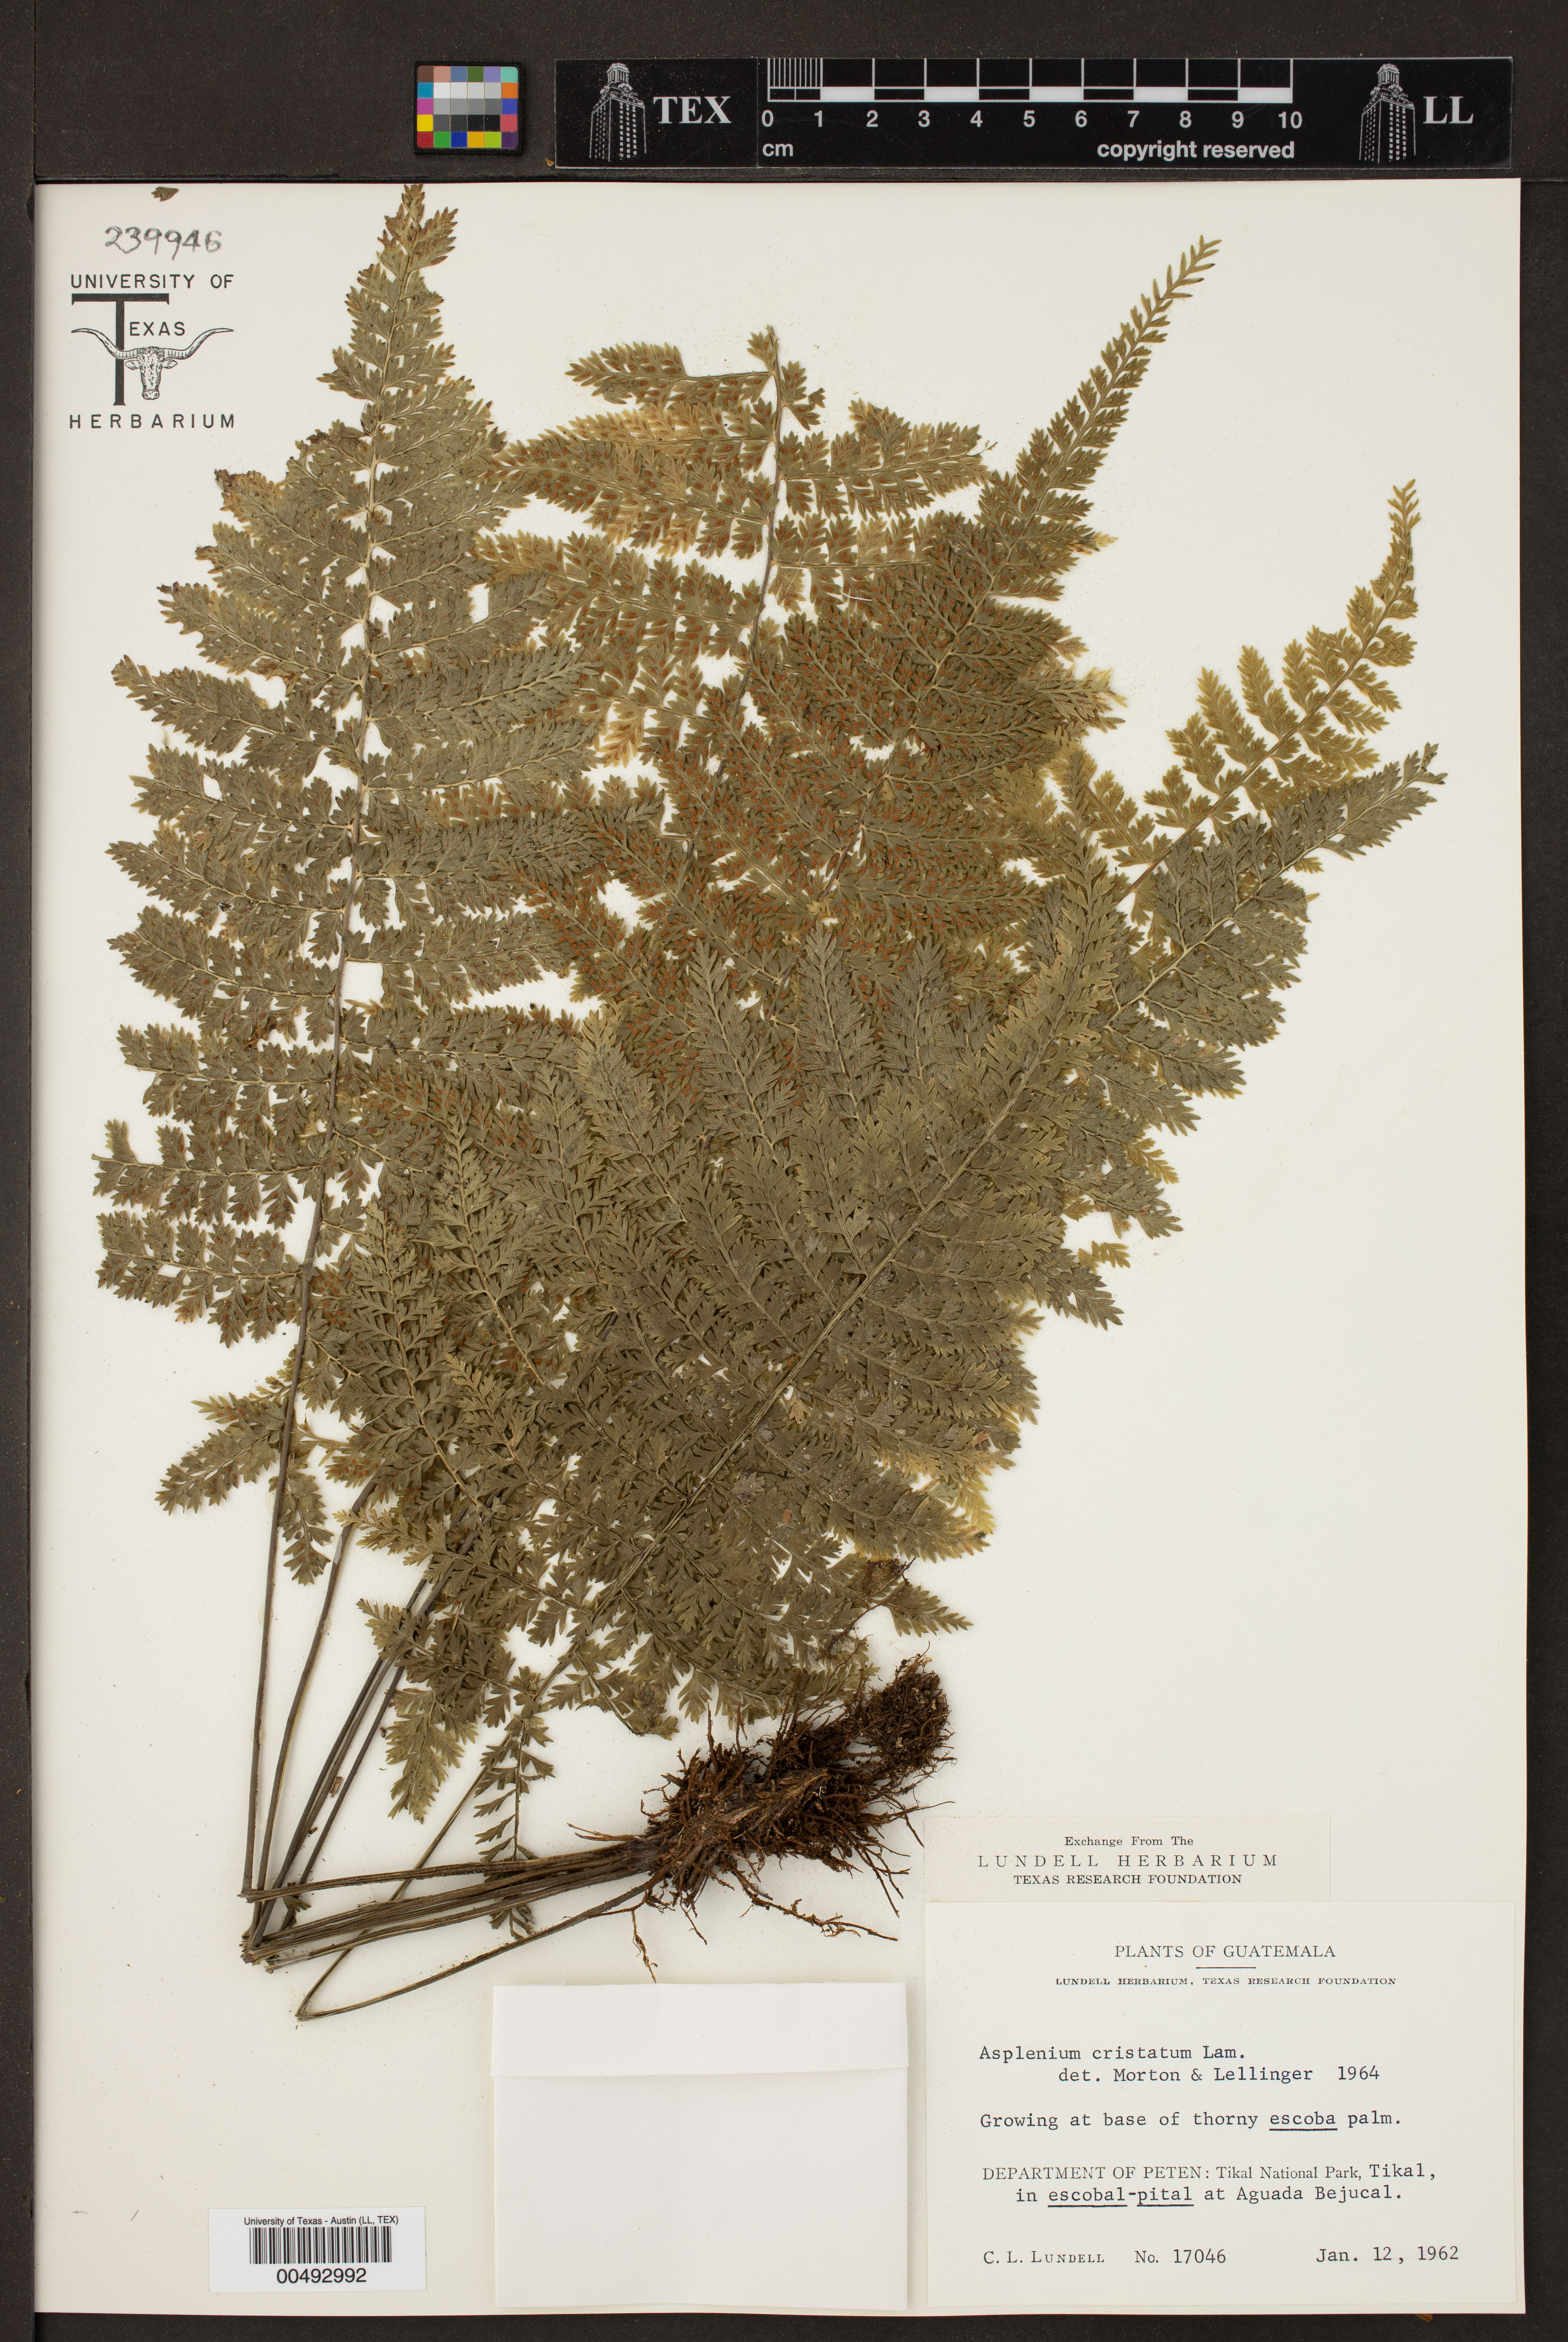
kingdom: Plantae
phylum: Tracheophyta
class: Polypodiopsida
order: Polypodiales
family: Aspleniaceae
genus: Asplenium
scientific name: Asplenium cristatum
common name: Parsley spleenwort
